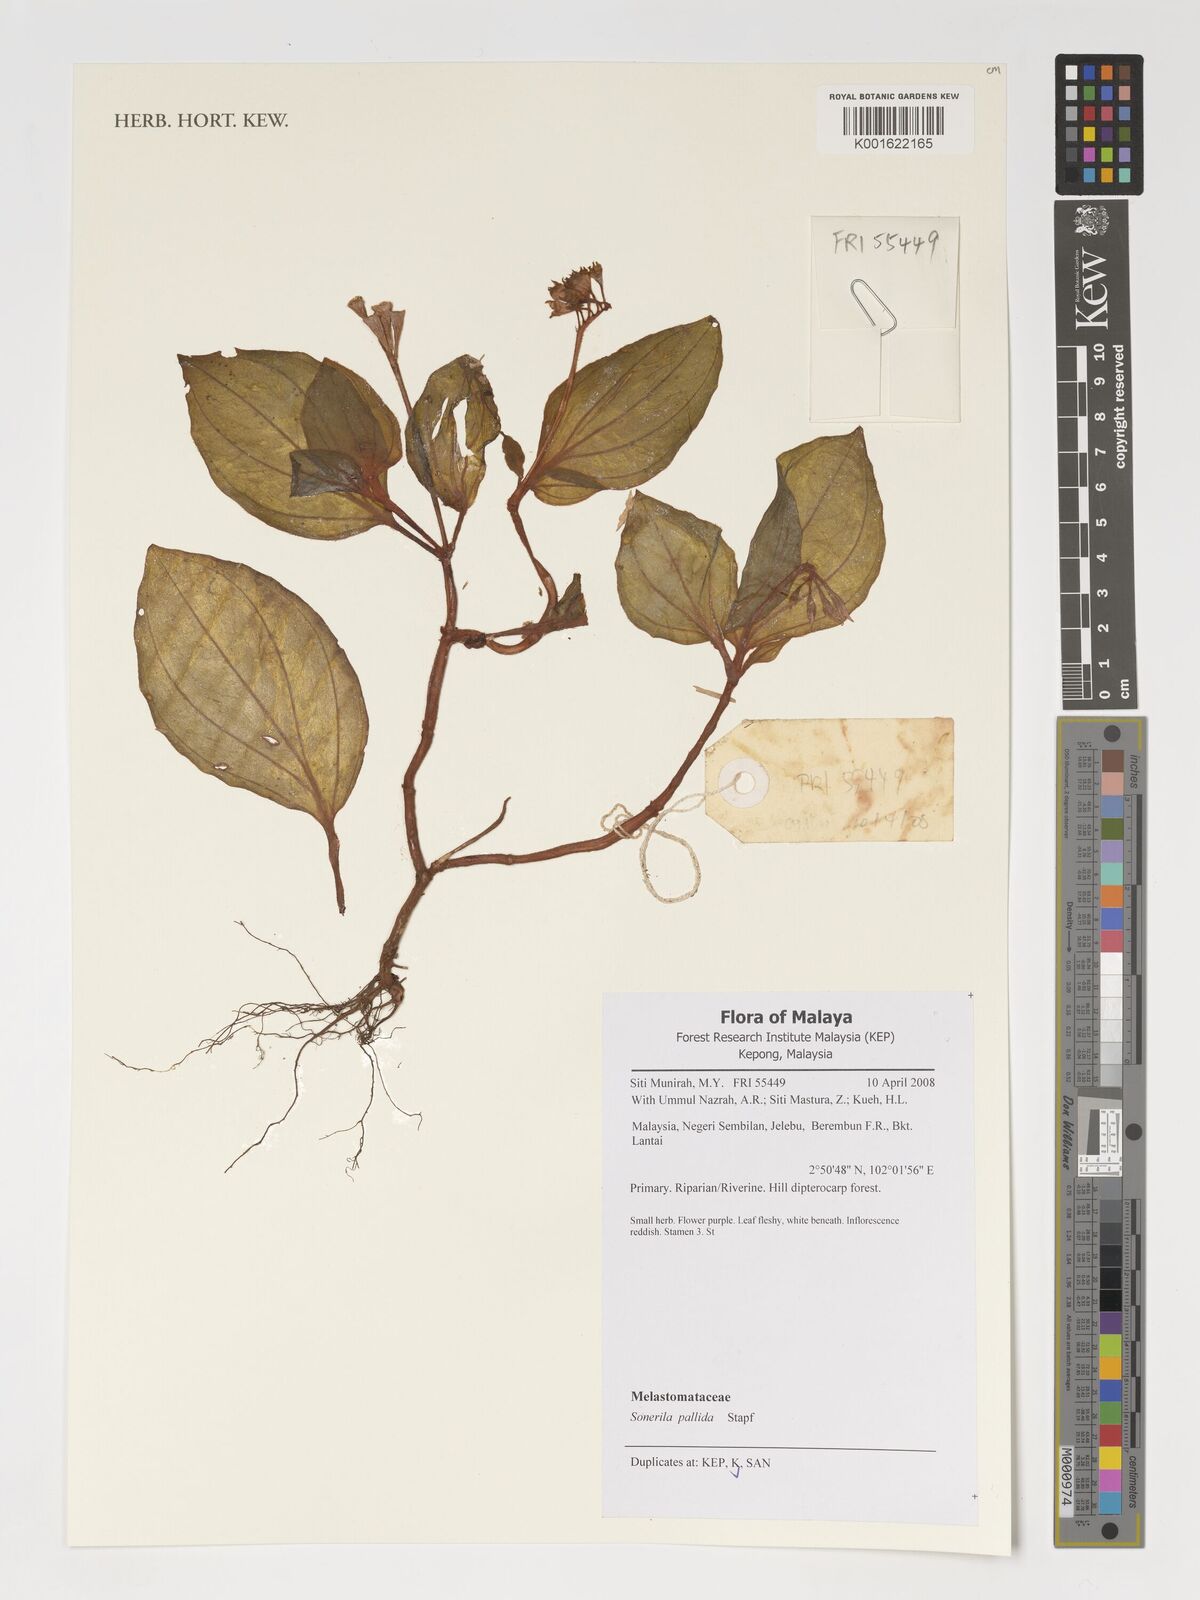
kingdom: Plantae
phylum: Tracheophyta
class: Magnoliopsida
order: Myrtales
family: Melastomataceae
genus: Sonerila
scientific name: Sonerila pallida
